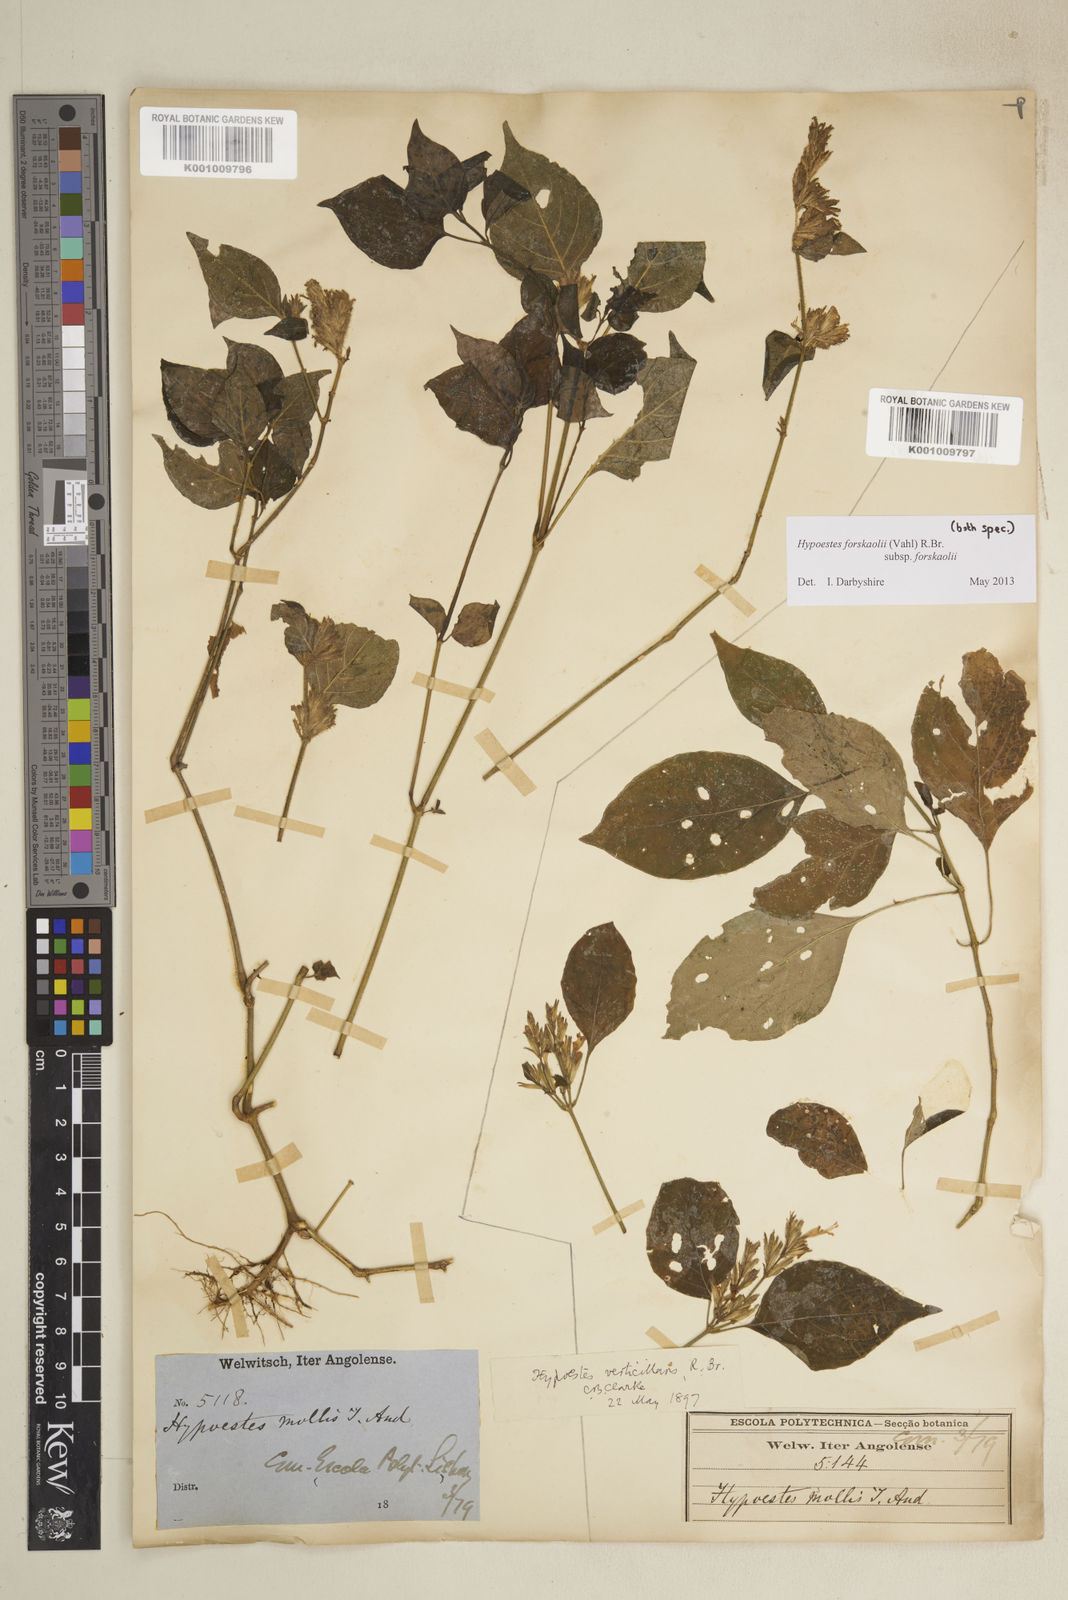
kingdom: Plantae
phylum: Tracheophyta
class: Magnoliopsida
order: Lamiales
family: Acanthaceae
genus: Hypoestes
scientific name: Hypoestes forskaolii
